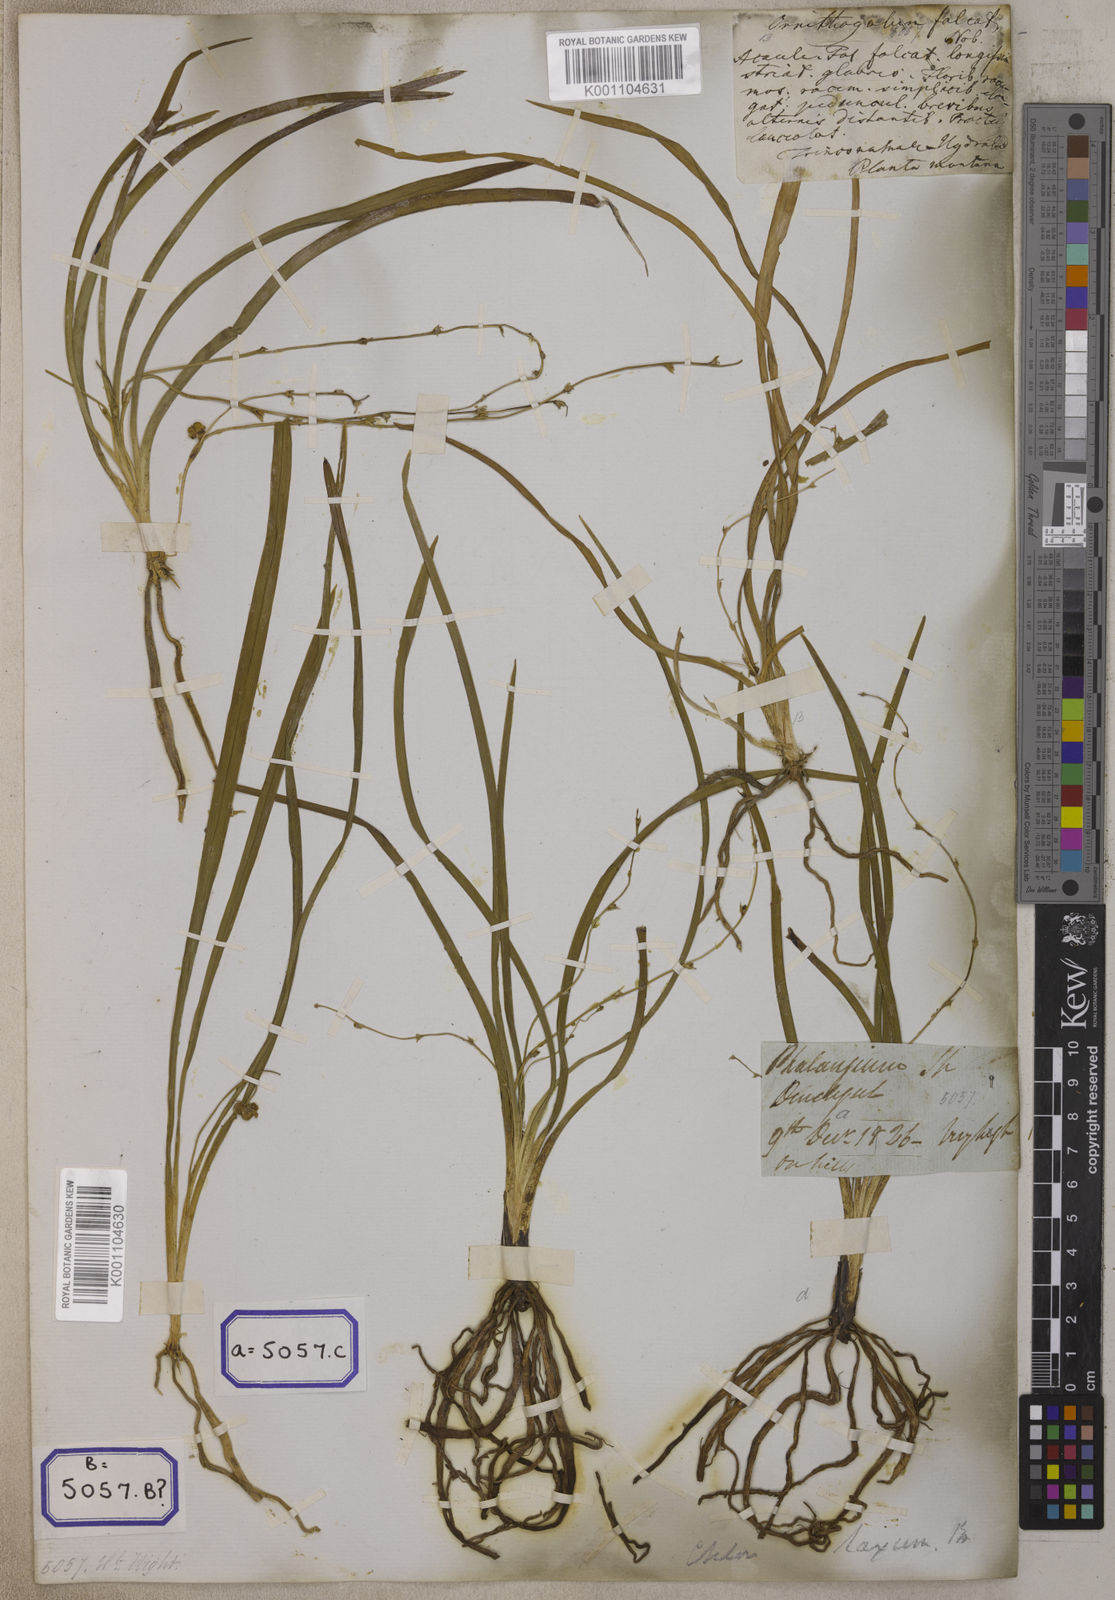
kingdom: Plantae
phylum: Tracheophyta
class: Liliopsida
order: Asparagales
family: Iridaceae
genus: Phalangium
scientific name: Phalangium
